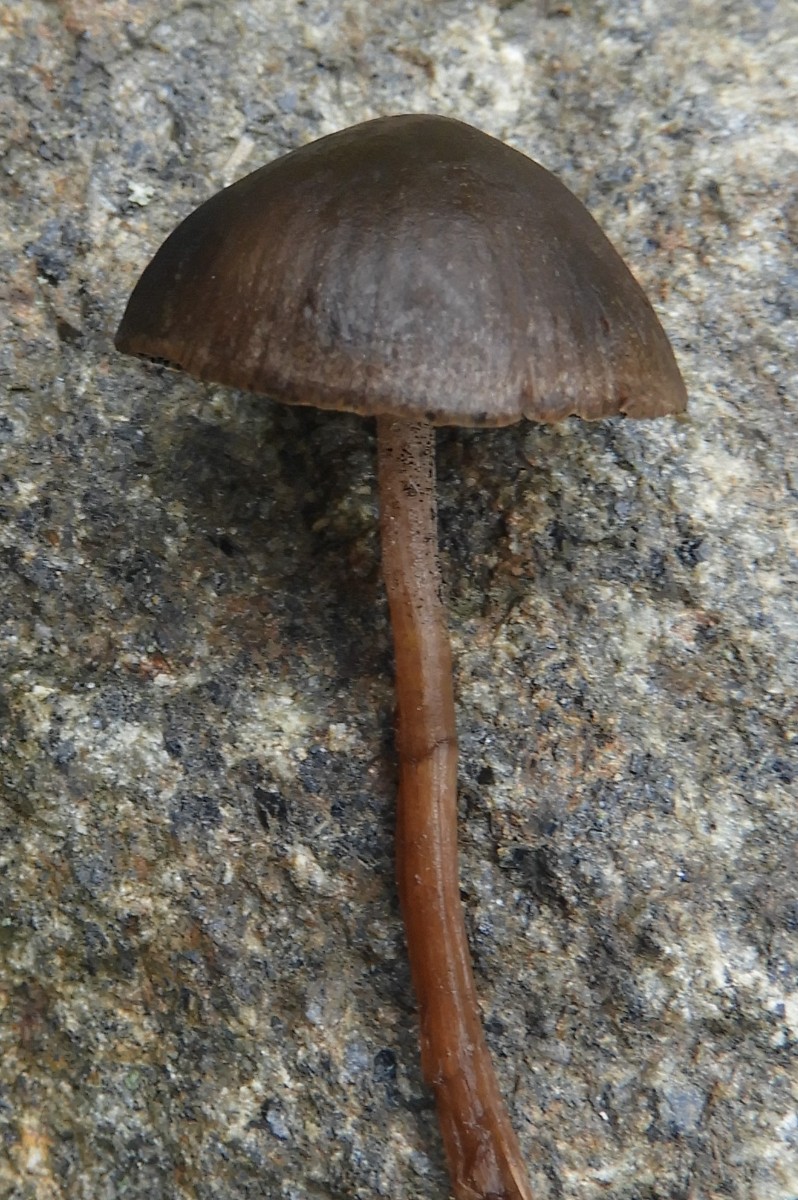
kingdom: Fungi
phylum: Basidiomycota
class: Agaricomycetes
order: Agaricales
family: Bolbitiaceae
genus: Panaeolus
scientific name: Panaeolus fimicola
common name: tidlig glanshat
